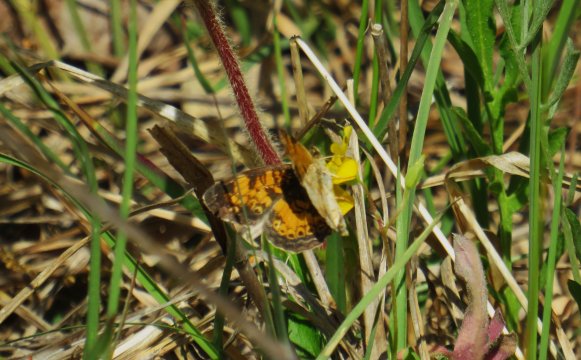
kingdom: Animalia
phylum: Arthropoda
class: Insecta
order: Lepidoptera
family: Nymphalidae
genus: Phyciodes
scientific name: Phyciodes tharos
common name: Pearl Crescent
